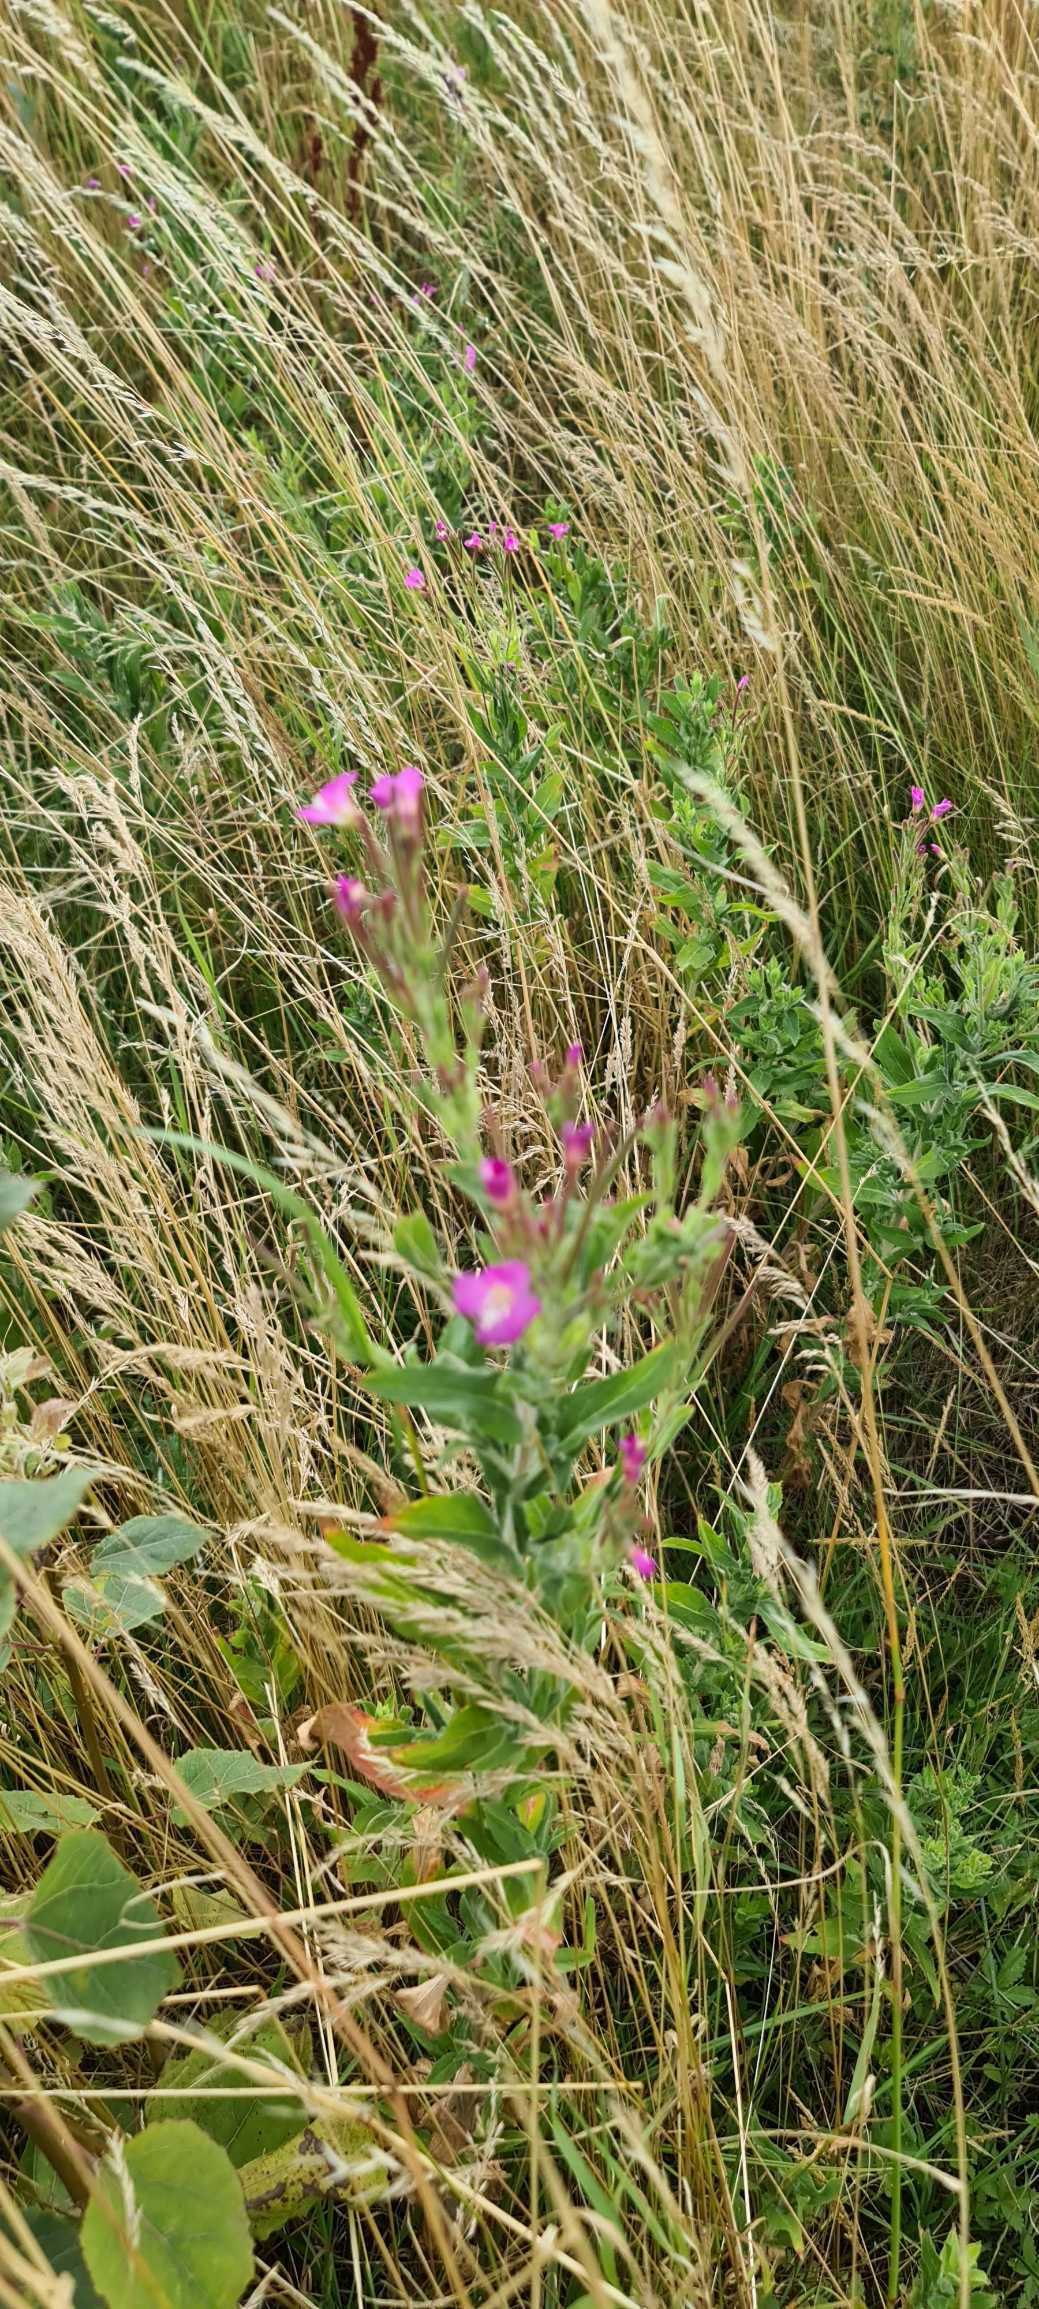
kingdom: Plantae
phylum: Tracheophyta
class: Magnoliopsida
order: Myrtales
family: Onagraceae
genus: Epilobium
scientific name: Epilobium hirsutum
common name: Lådden dueurt
